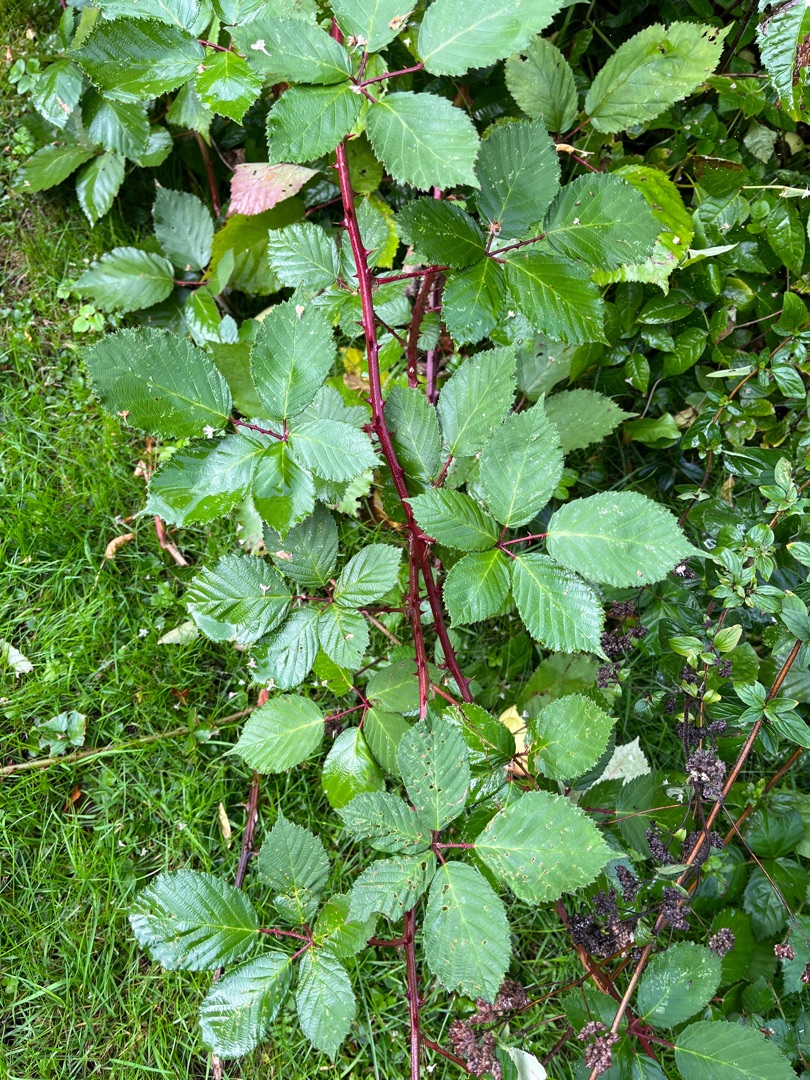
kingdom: Plantae
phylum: Tracheophyta
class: Magnoliopsida
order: Rosales
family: Rosaceae
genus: Rubus
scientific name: Rubus armeniacus
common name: Armensk brombær
